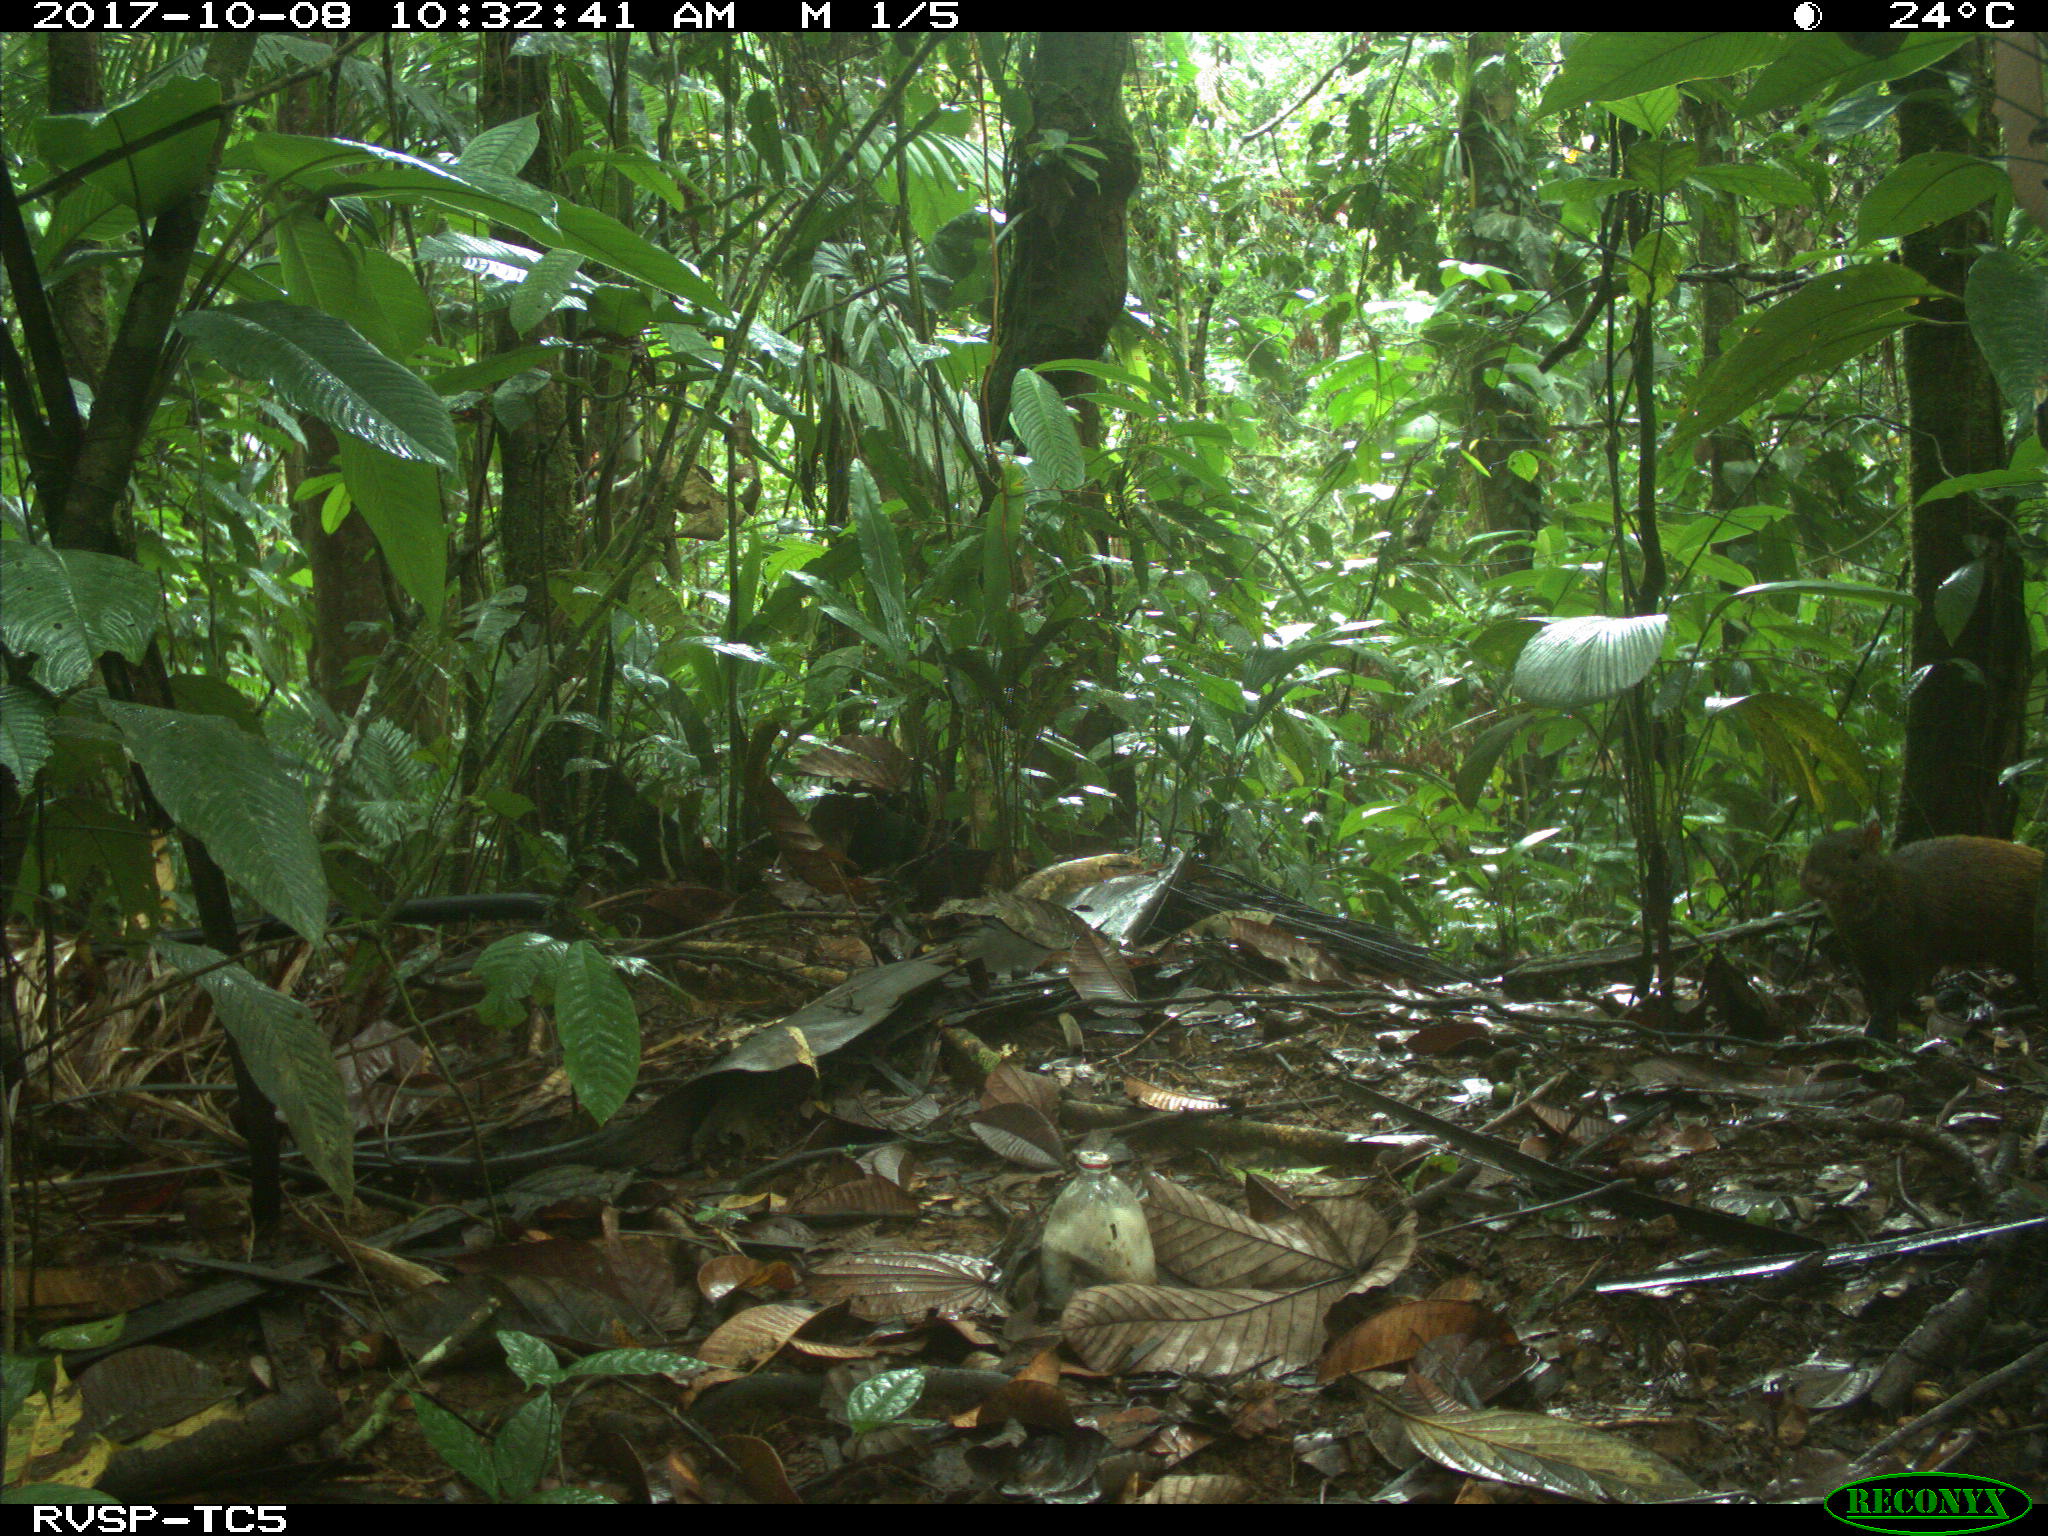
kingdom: Animalia
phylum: Chordata
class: Mammalia
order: Rodentia
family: Dasyproctidae
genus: Dasyprocta
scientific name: Dasyprocta punctata
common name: Central american agouti
